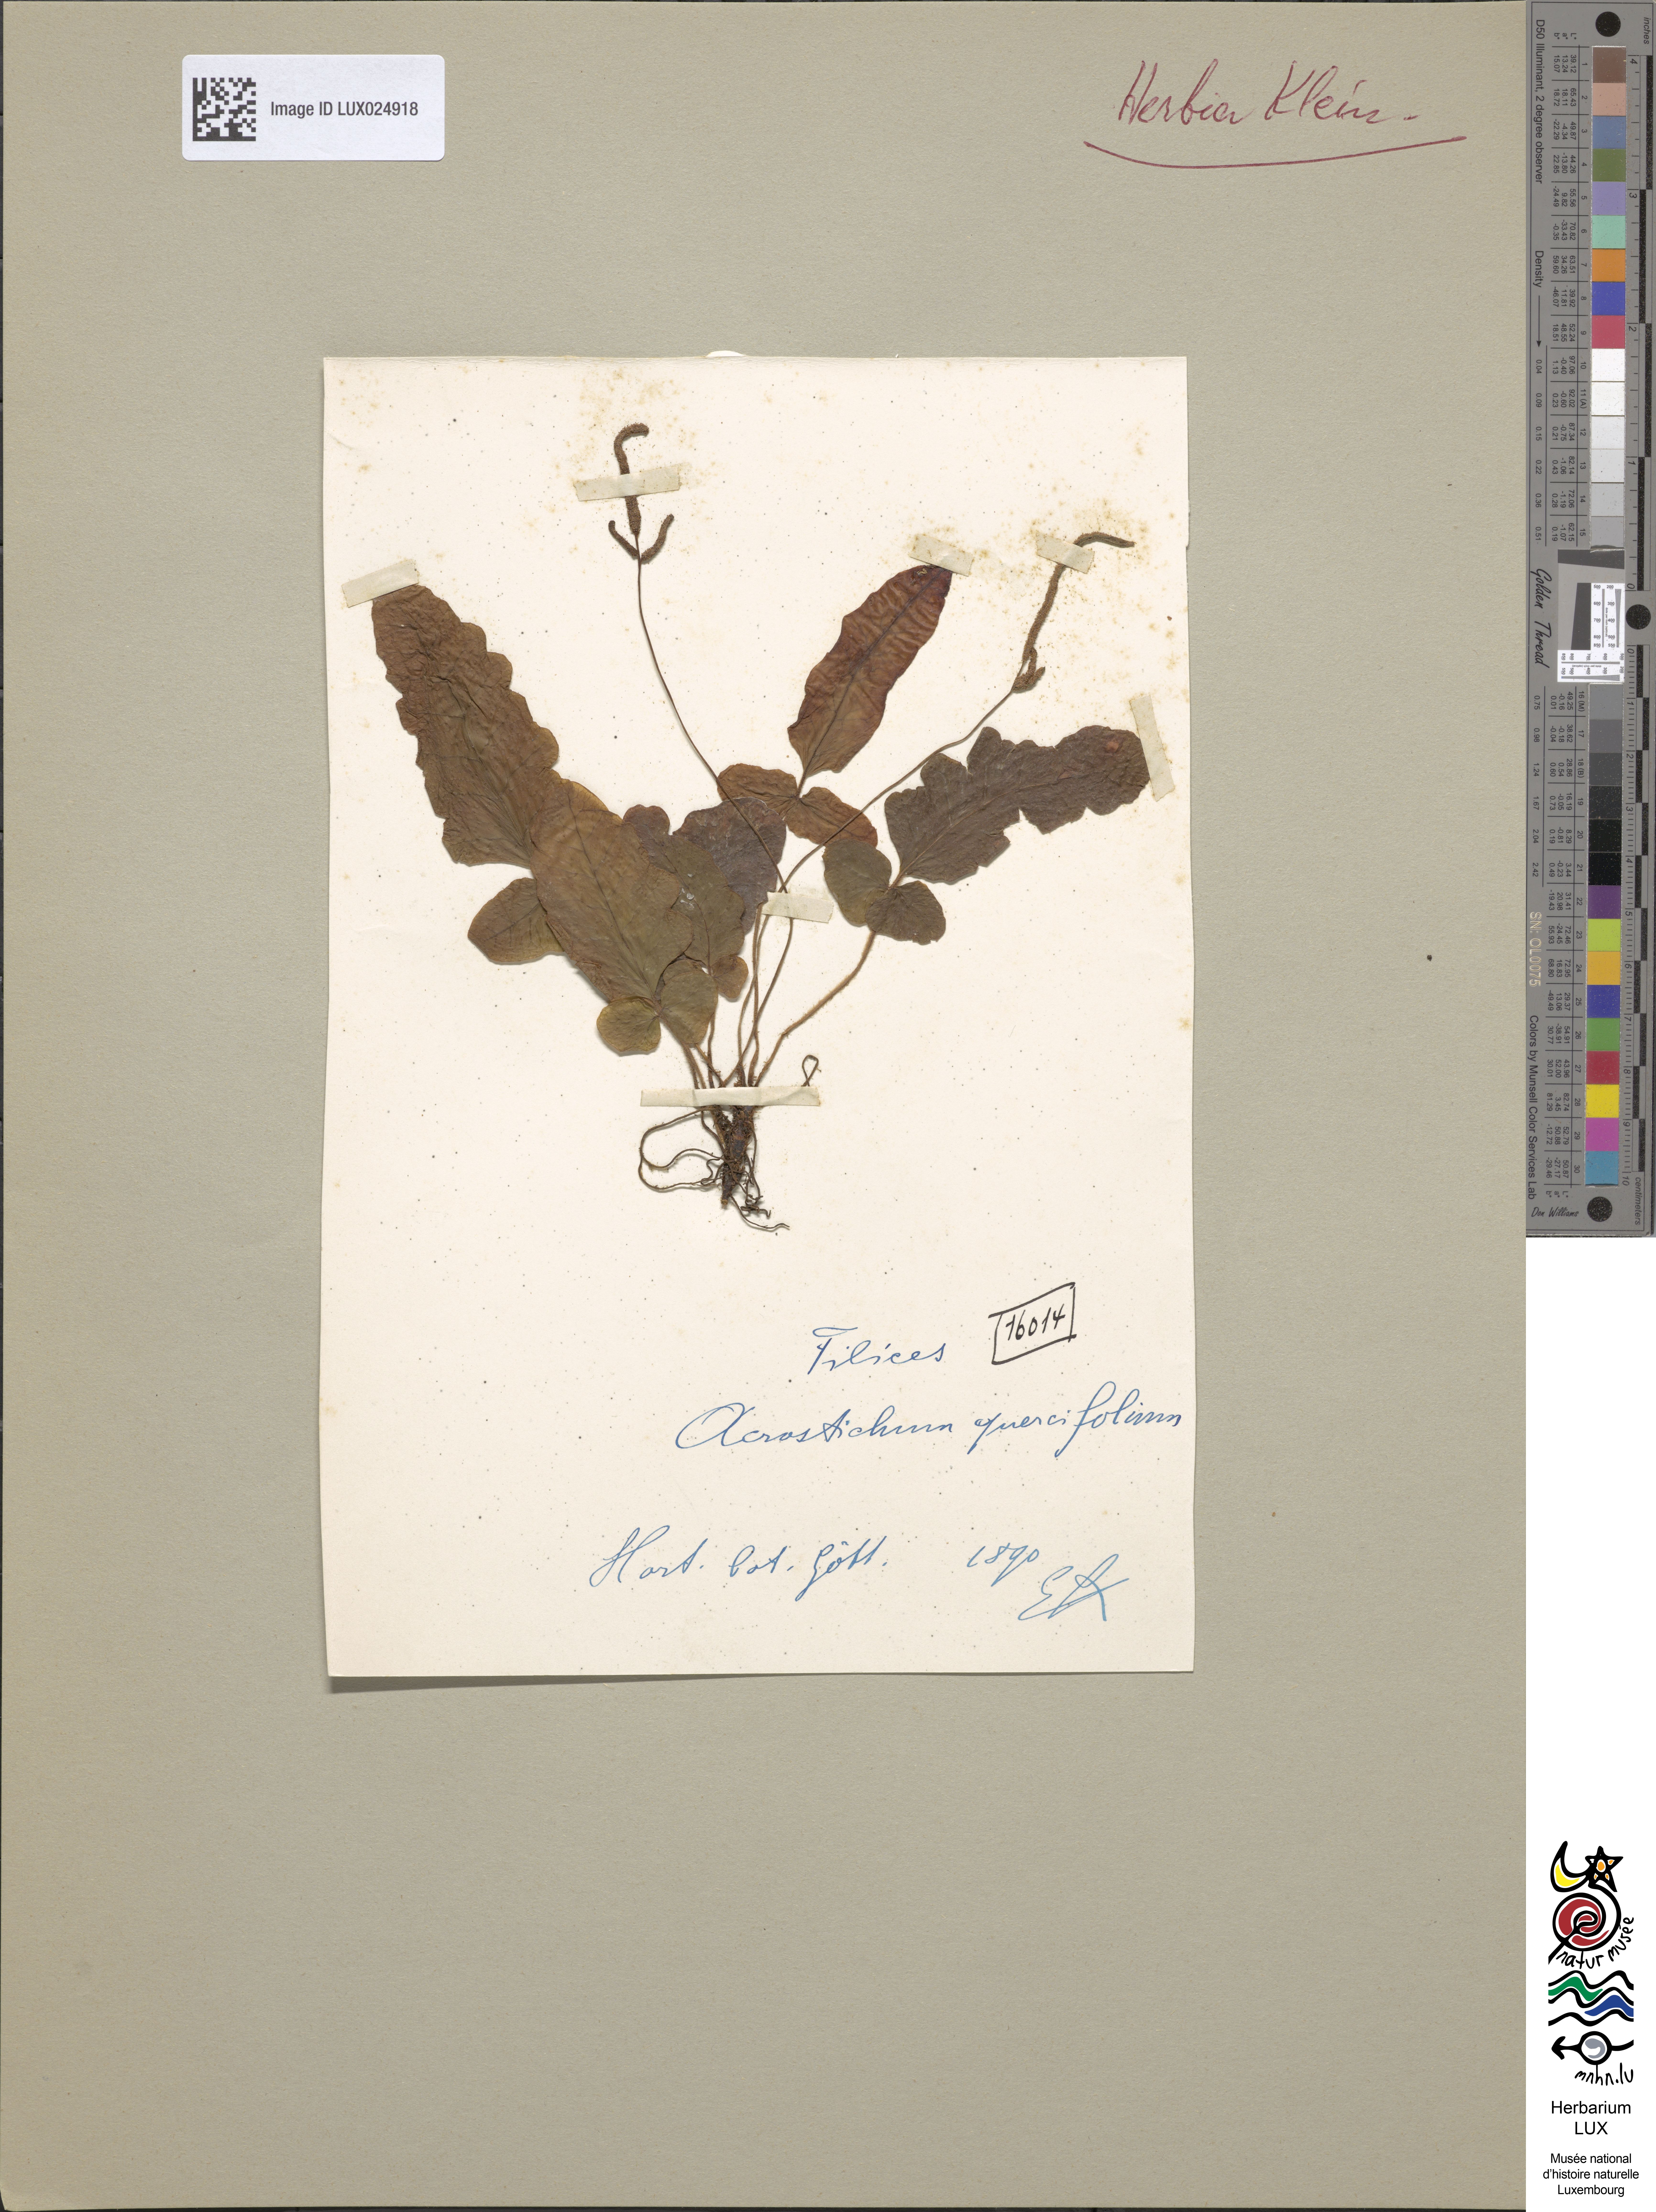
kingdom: Plantae
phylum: Tracheophyta
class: Polypodiopsida
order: Polypodiales
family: Tectariaceae
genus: Tectaria
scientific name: Tectaria zeilanica
